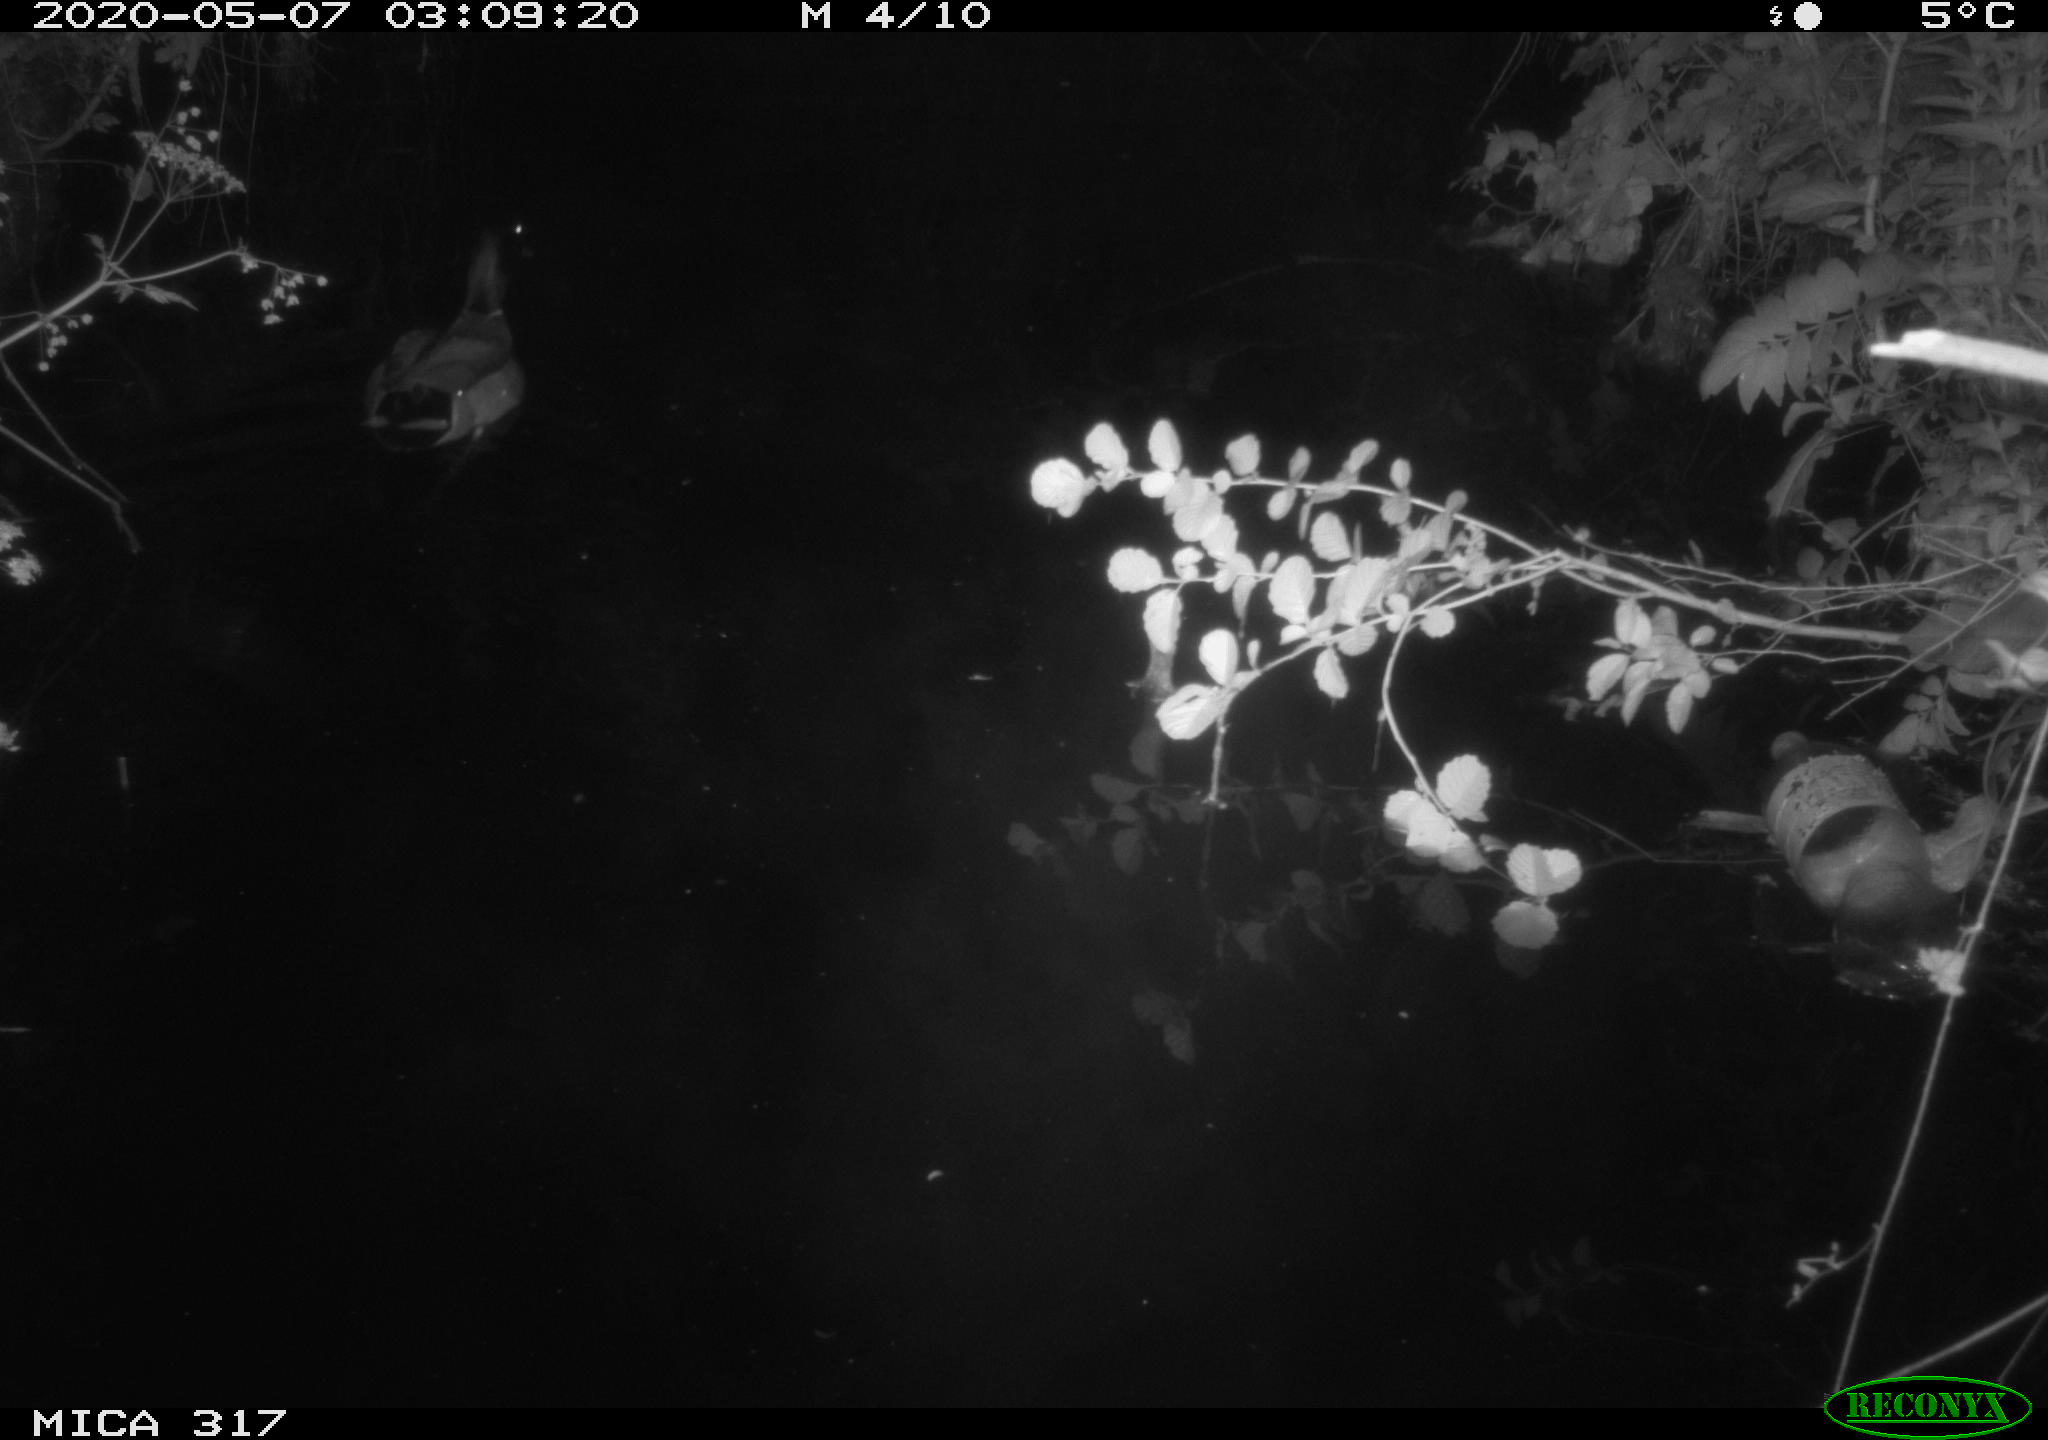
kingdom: Animalia
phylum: Chordata
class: Aves
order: Anseriformes
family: Anatidae
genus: Anas
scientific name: Anas platyrhynchos
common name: Mallard
